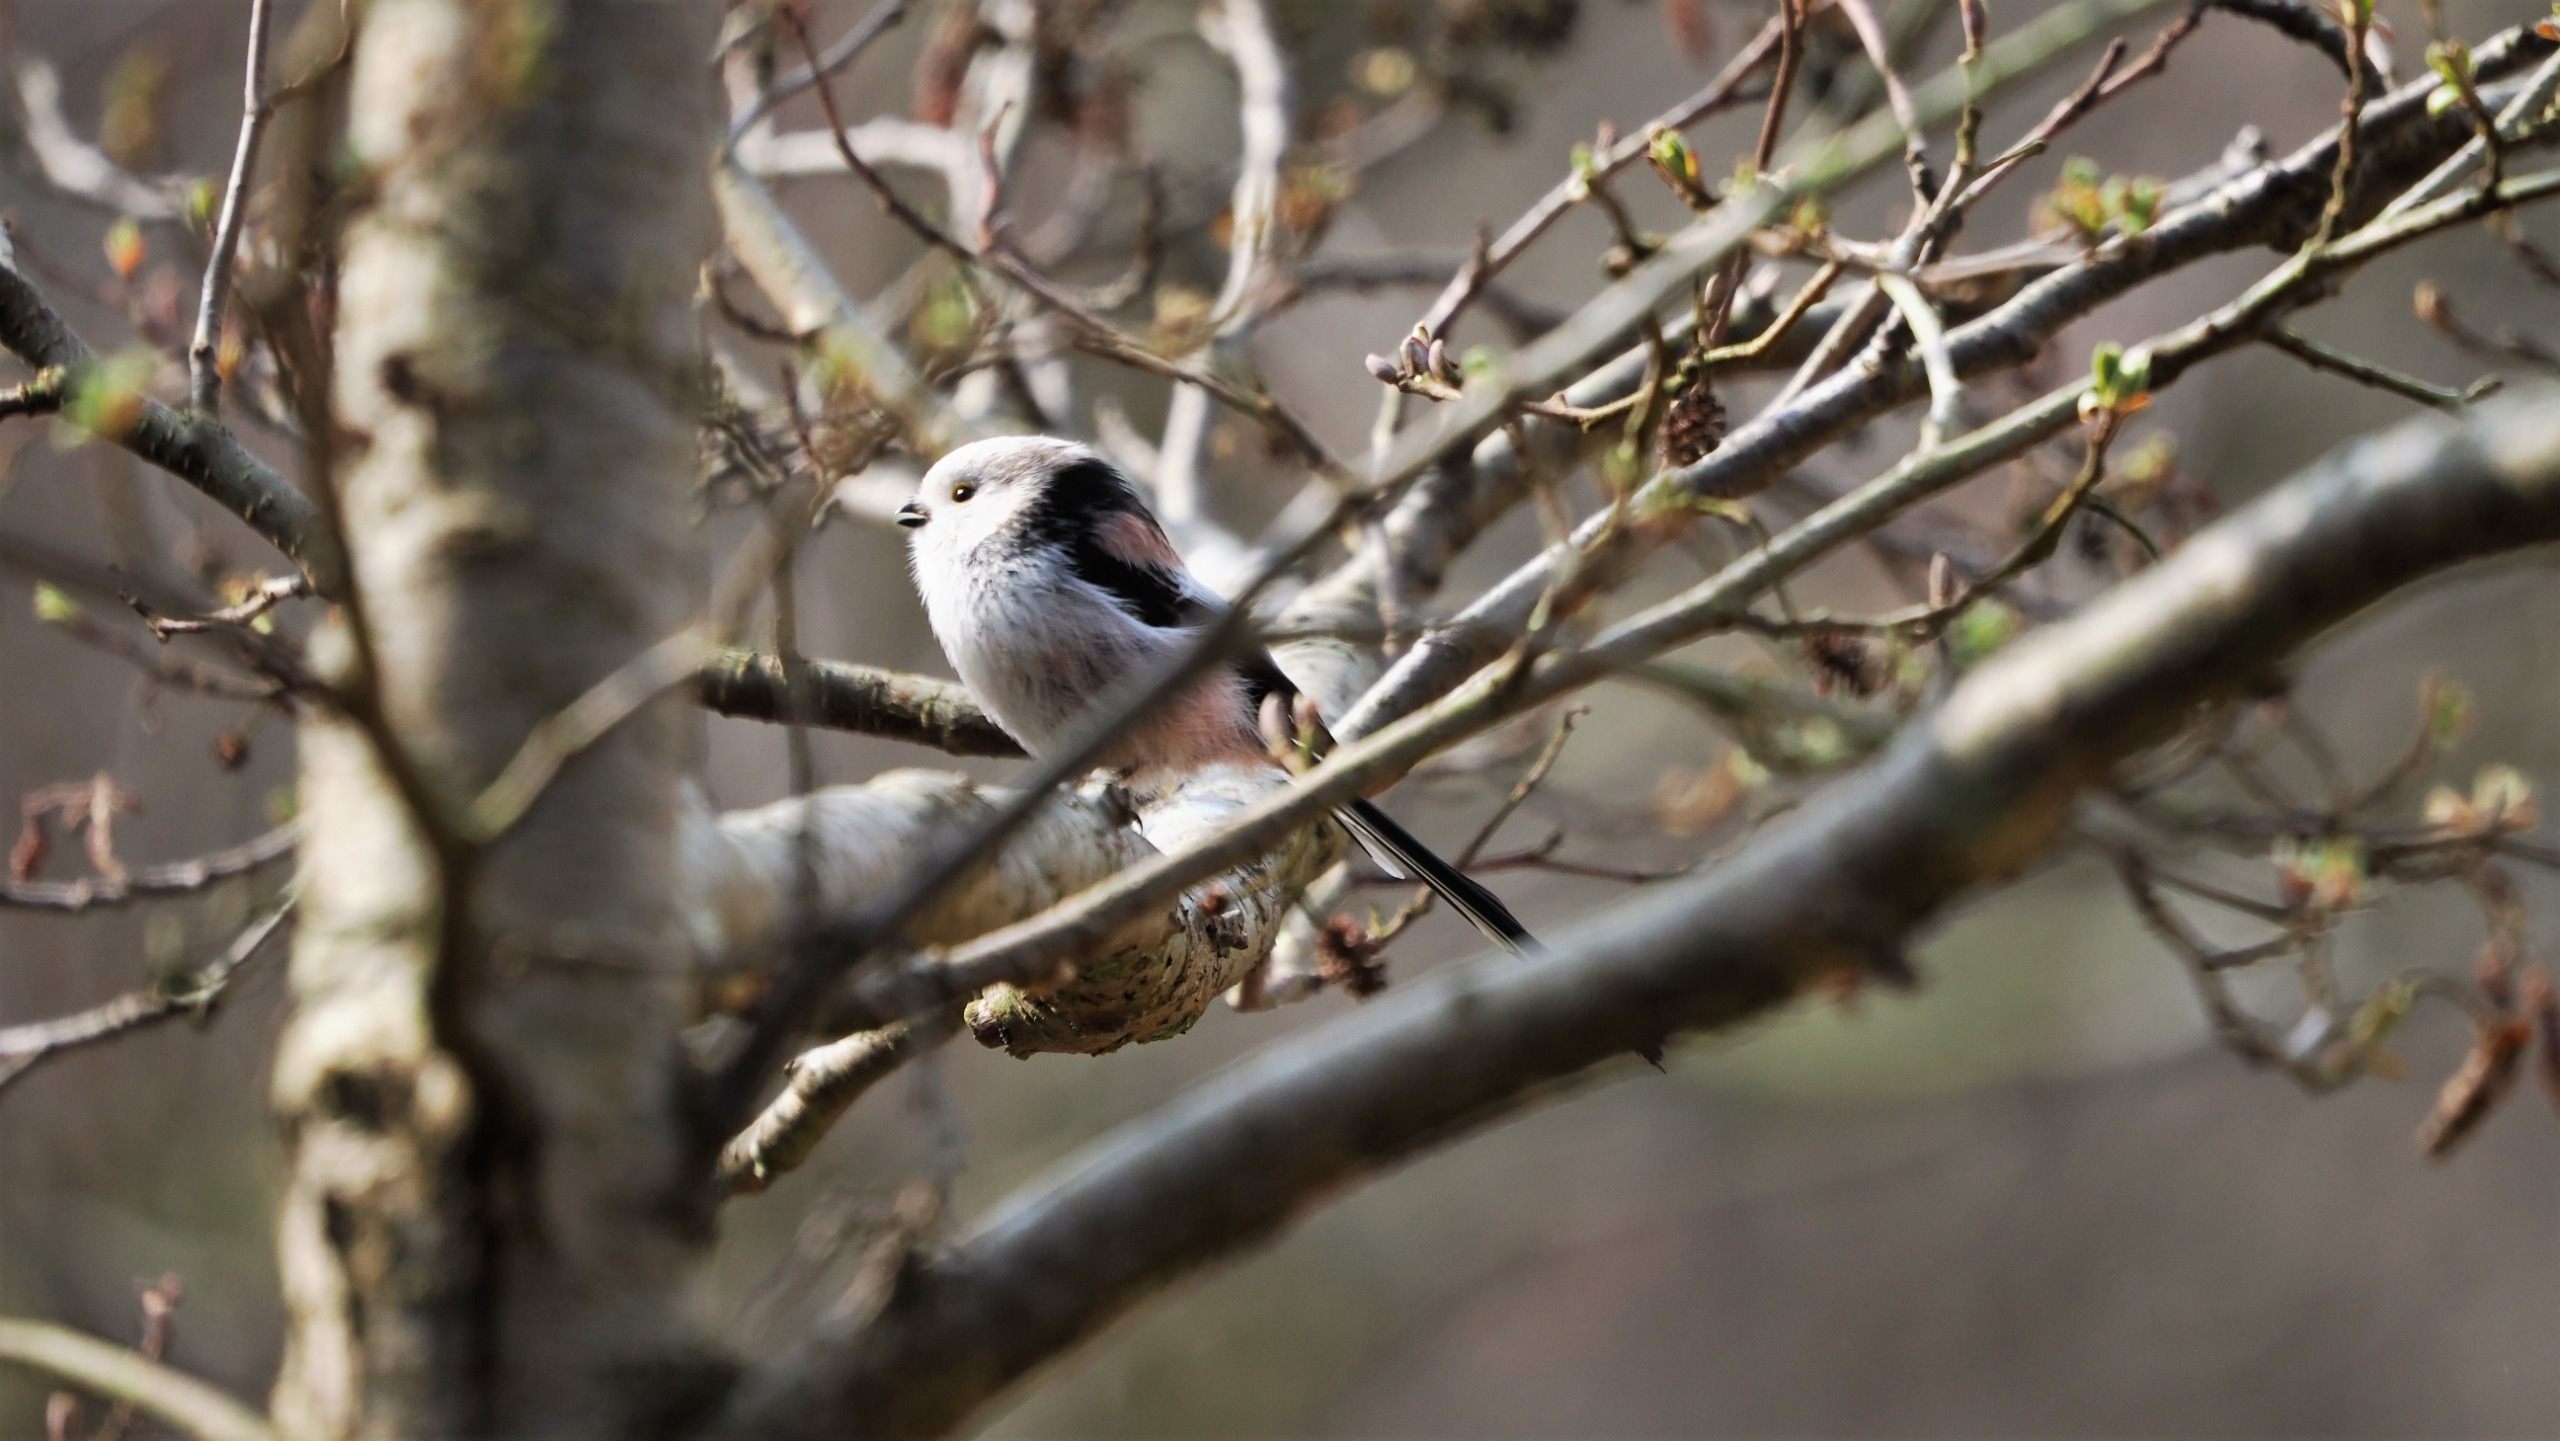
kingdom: Animalia
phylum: Chordata
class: Aves
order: Passeriformes
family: Aegithalidae
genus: Aegithalos
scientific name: Aegithalos caudatus
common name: Halemejse
